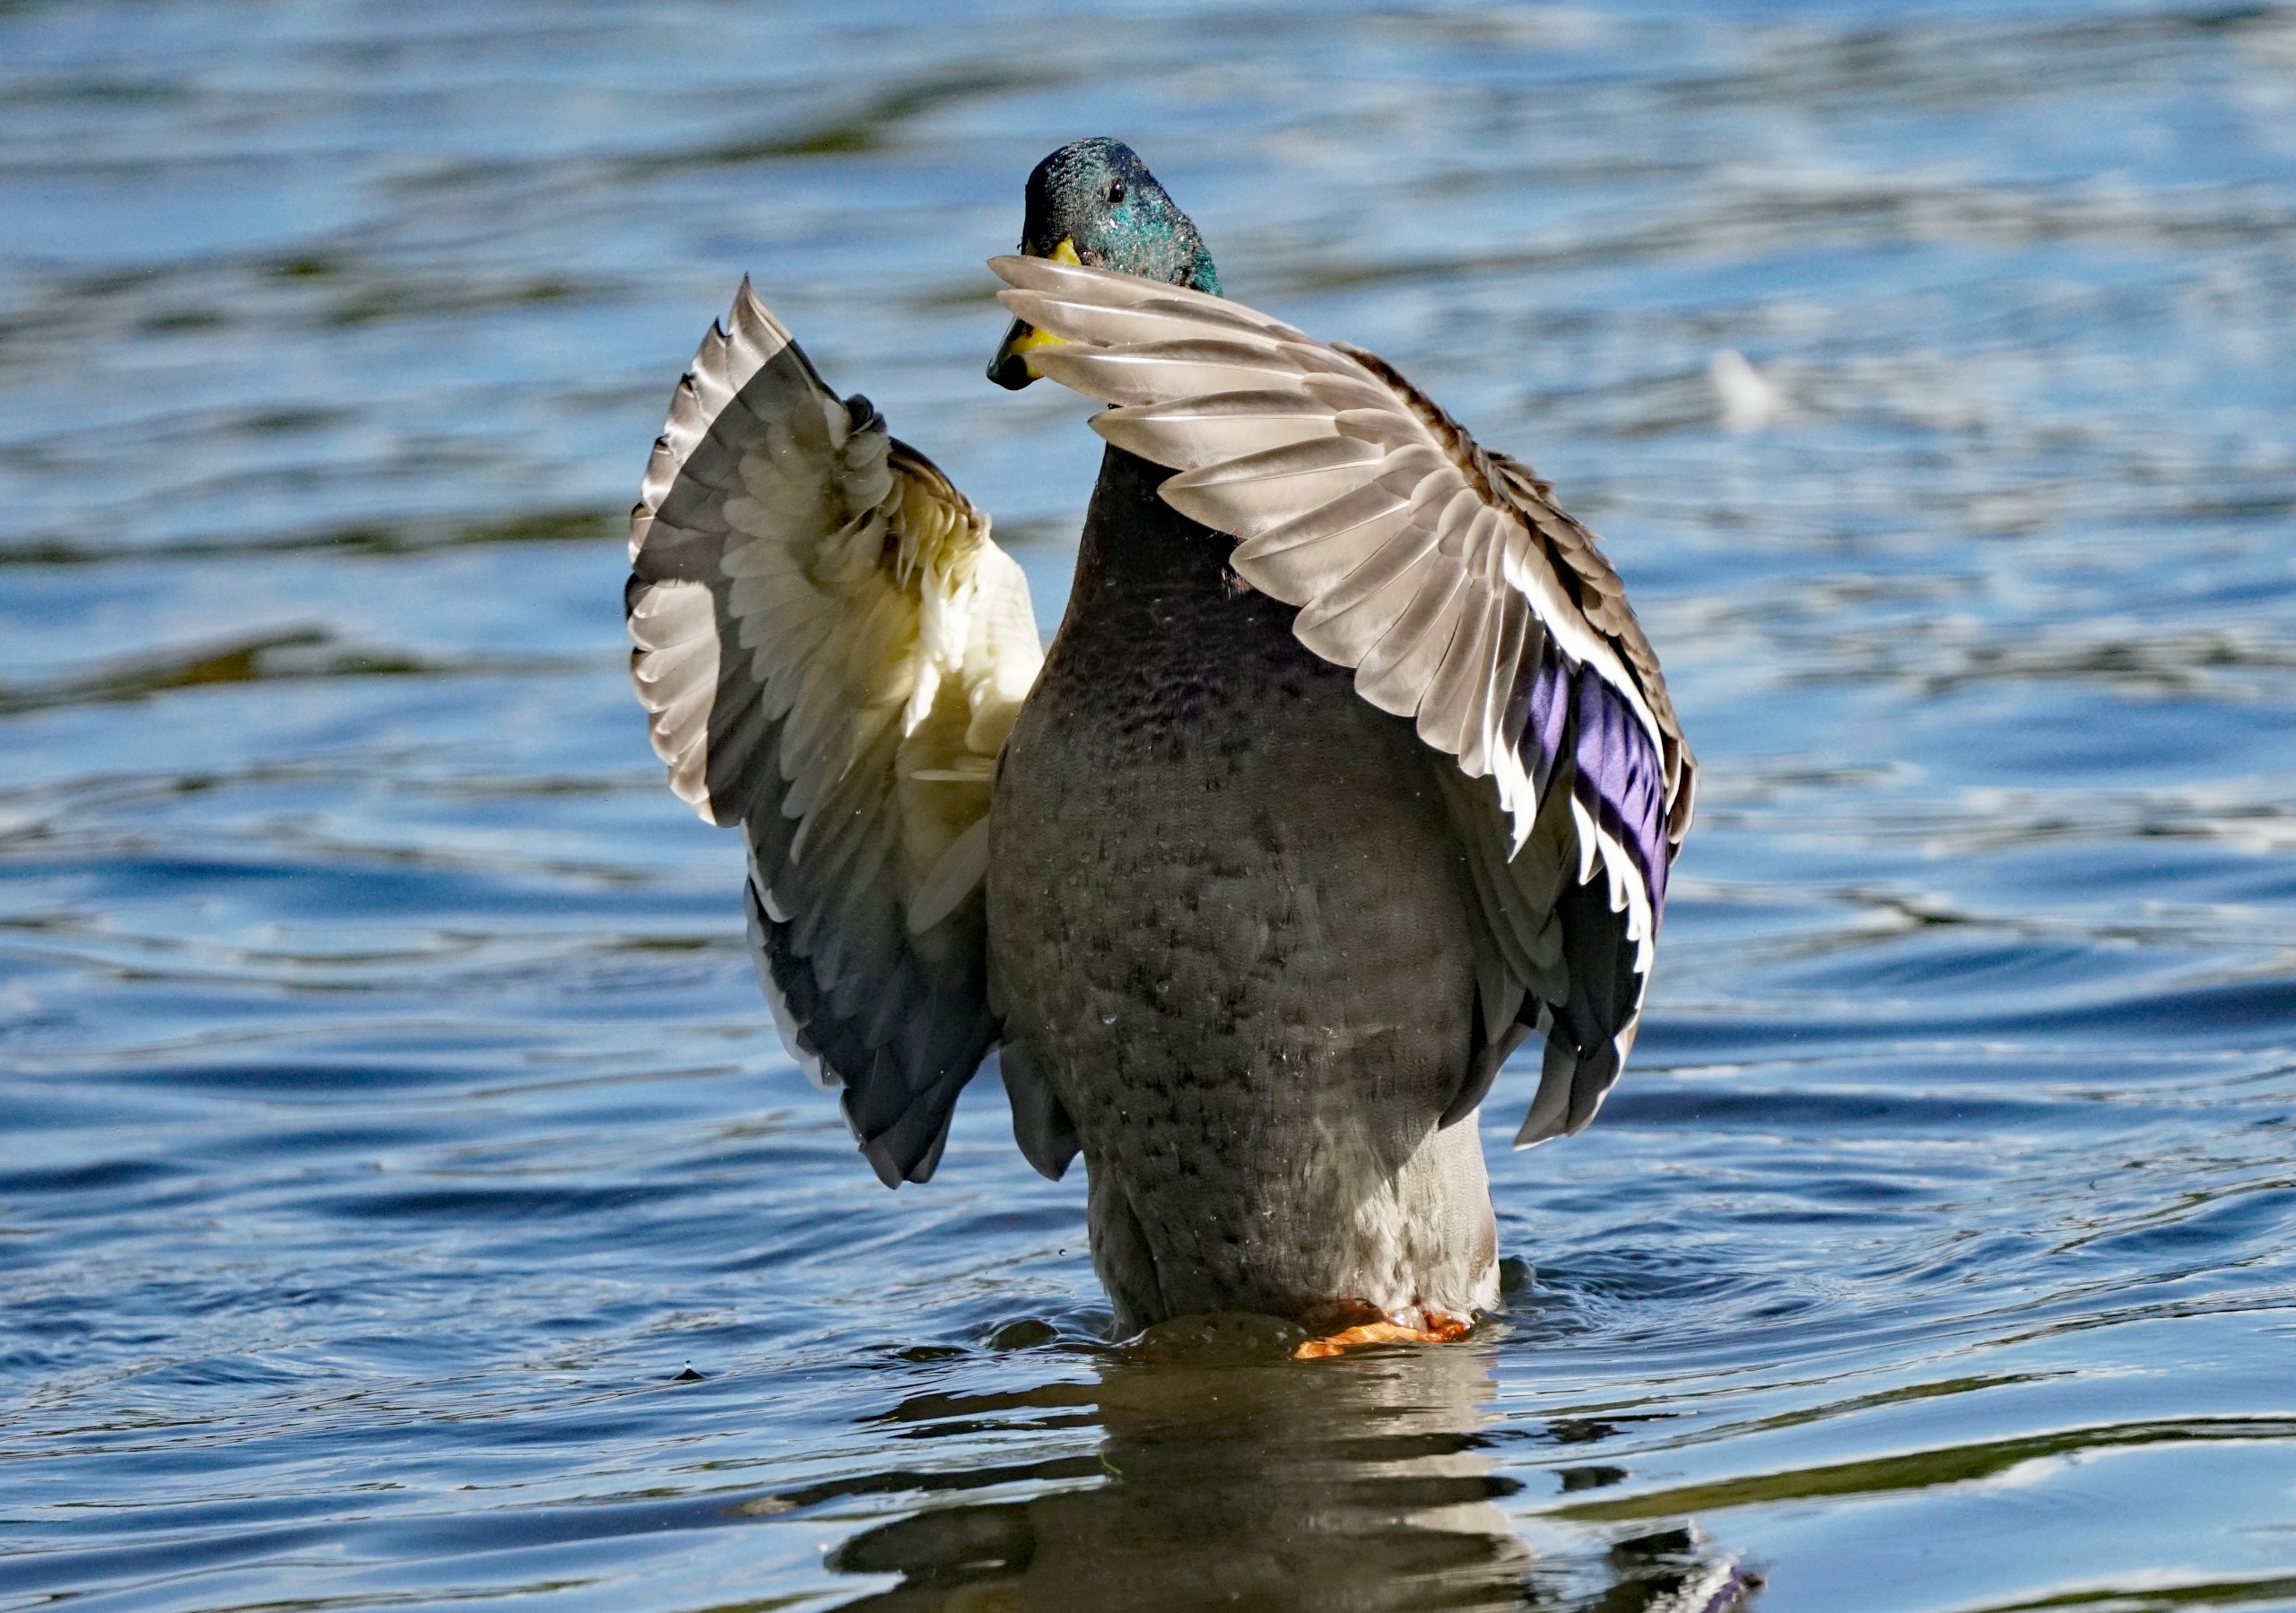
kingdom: Animalia
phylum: Chordata
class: Aves
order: Anseriformes
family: Anatidae
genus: Anas
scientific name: Anas platyrhynchos
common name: Gråand
